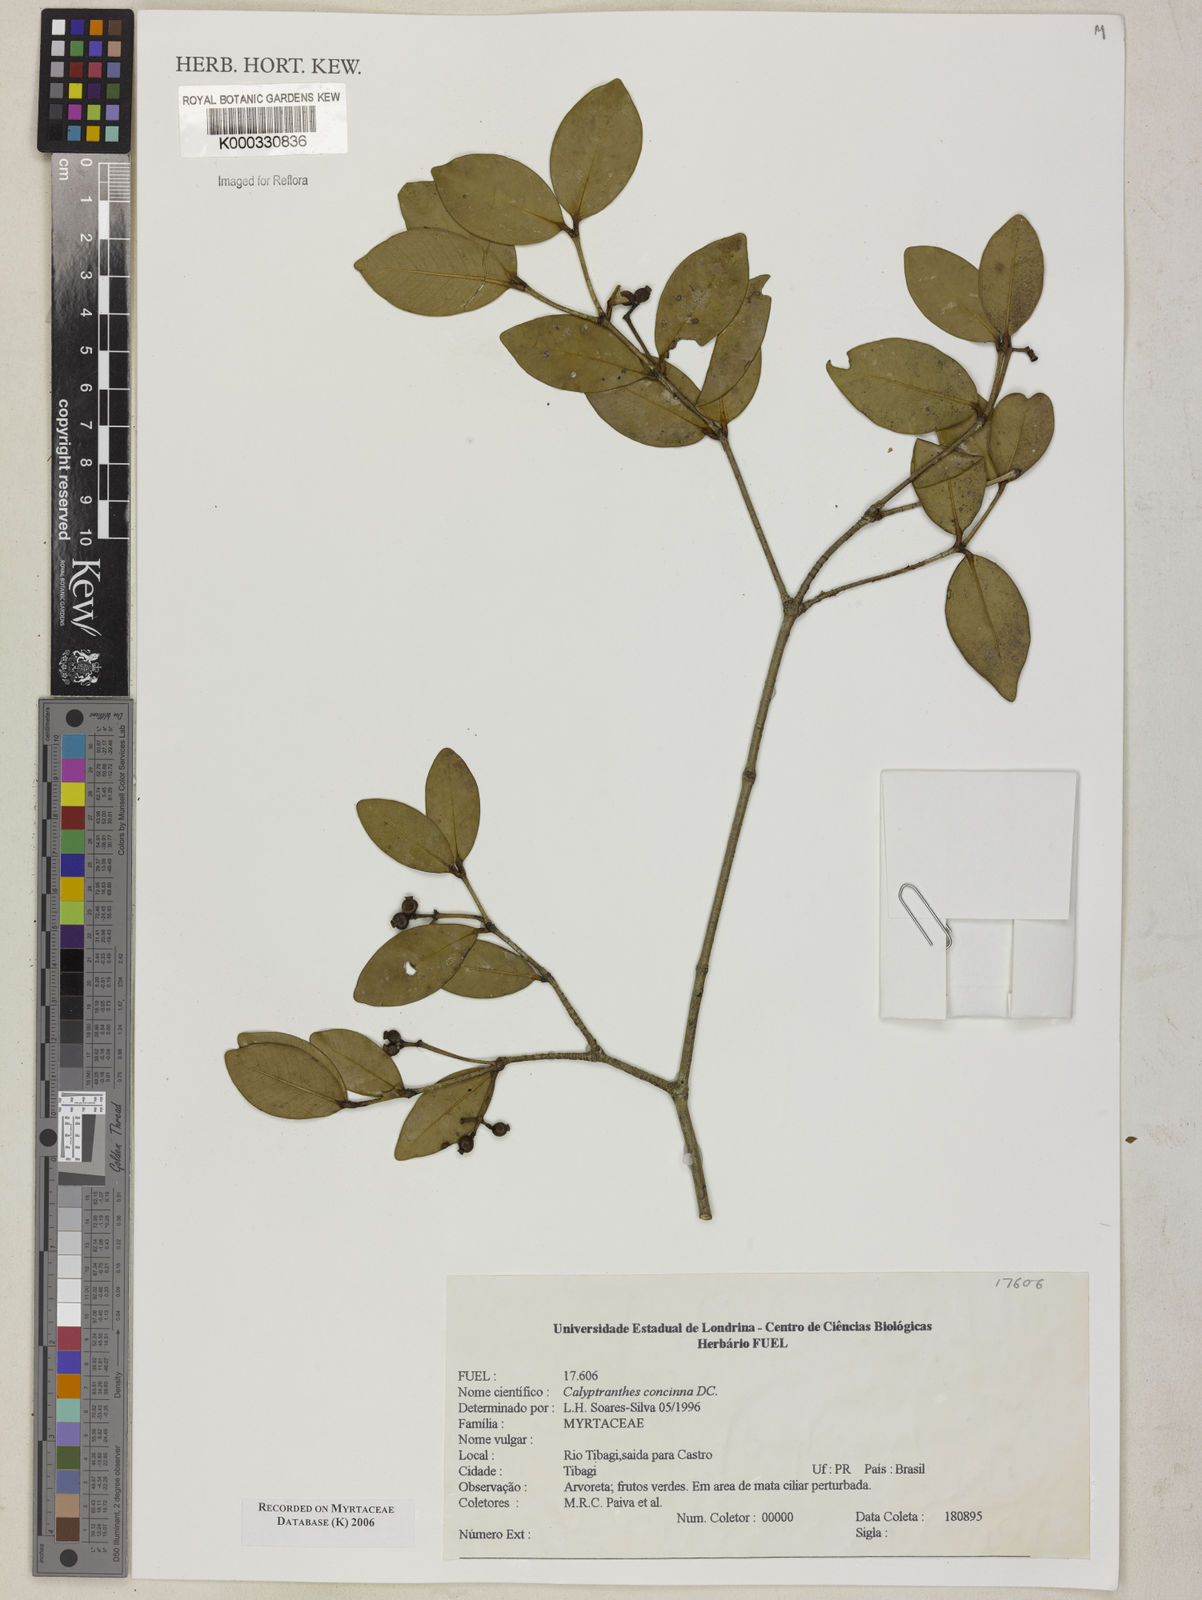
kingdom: Plantae
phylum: Tracheophyta
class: Magnoliopsida
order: Myrtales
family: Myrtaceae
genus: Myrcia
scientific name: Myrcia cruciflora
